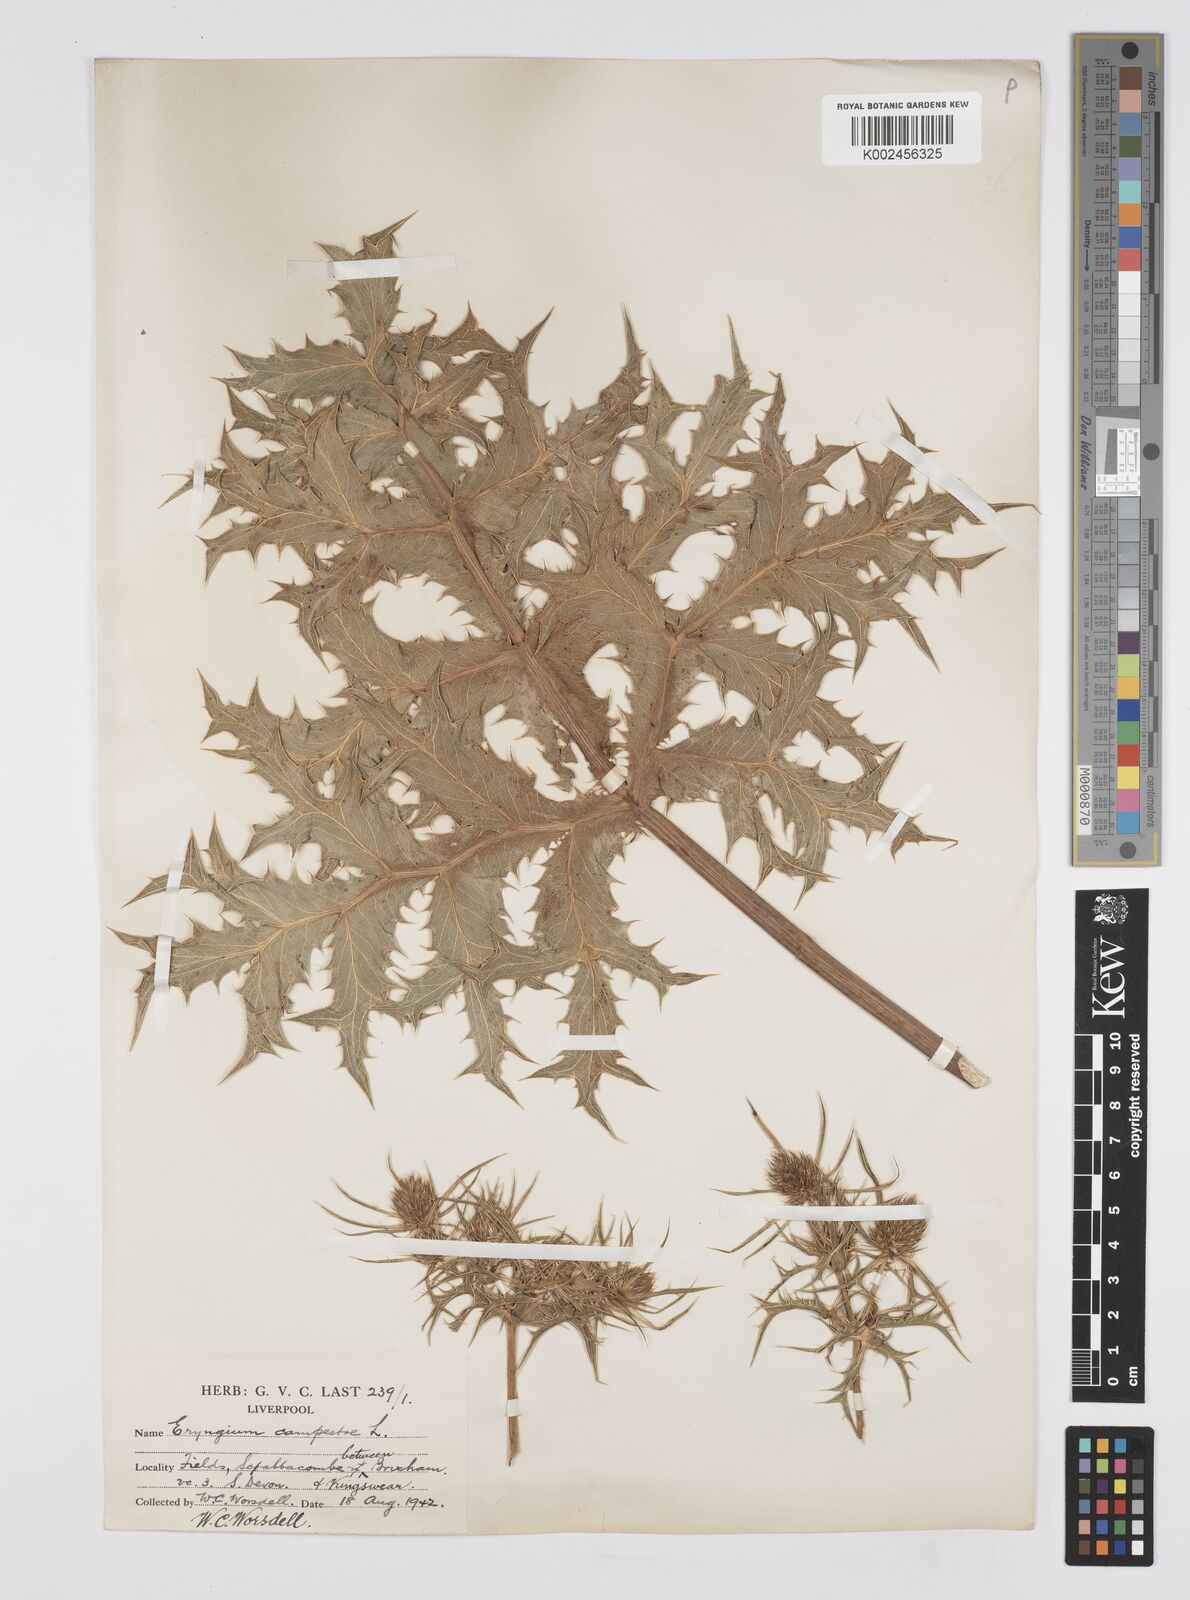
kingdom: Plantae
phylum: Tracheophyta
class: Magnoliopsida
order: Apiales
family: Apiaceae
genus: Eryngium
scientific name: Eryngium campestre
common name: Field eryngo
